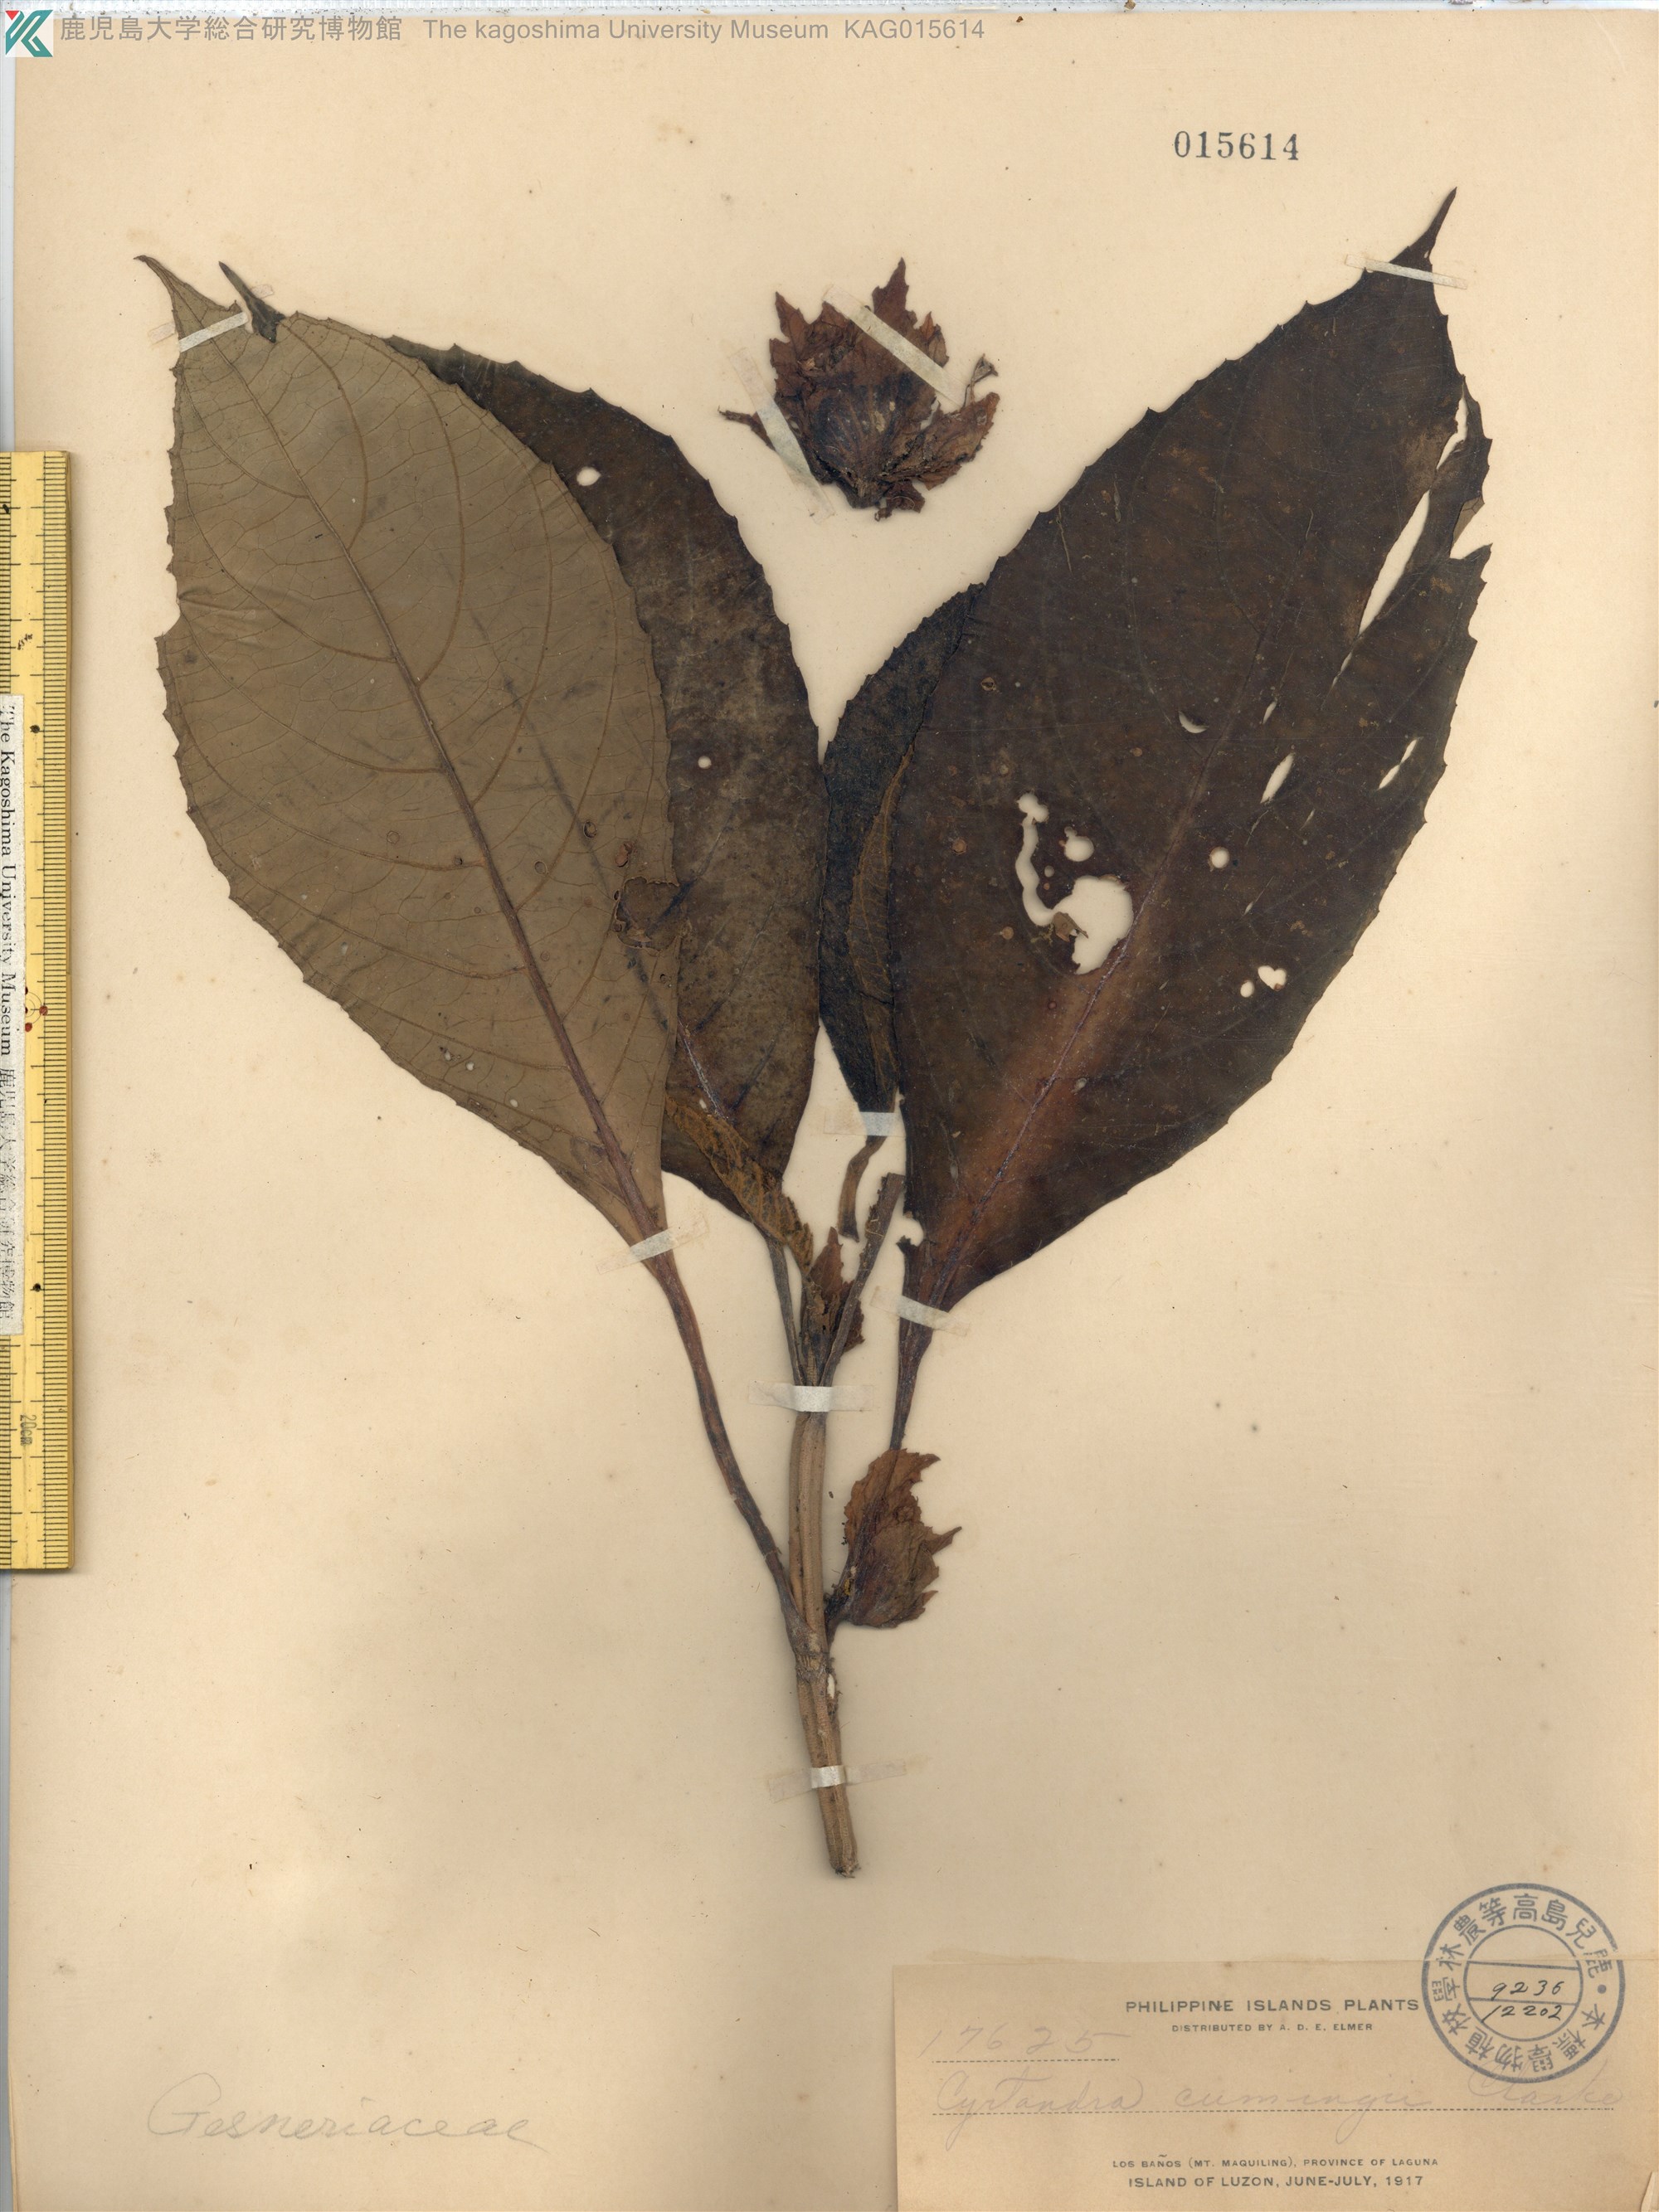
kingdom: Plantae
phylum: Tracheophyta
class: Magnoliopsida
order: Lamiales
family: Gesneriaceae
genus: Cyrtandra
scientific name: Cyrtandra cumingii
